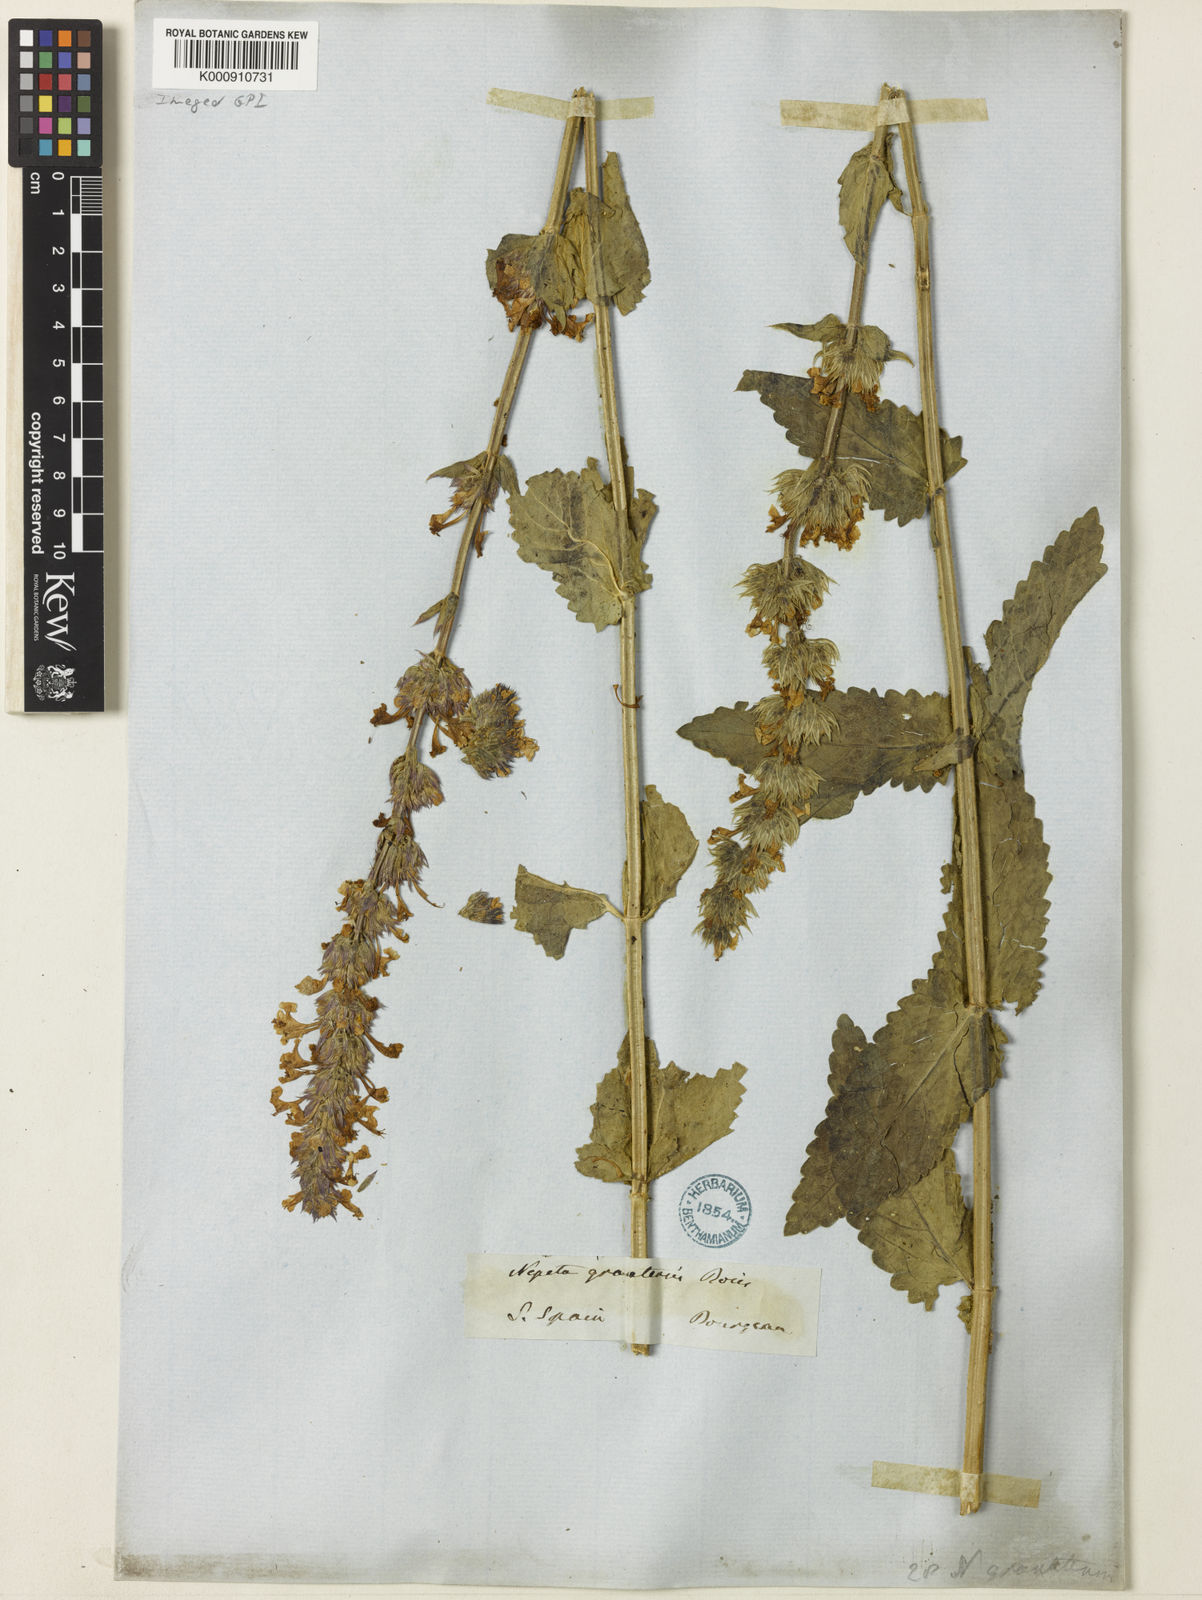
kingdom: Plantae
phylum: Tracheophyta
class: Magnoliopsida
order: Lamiales
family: Lamiaceae
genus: Nepeta
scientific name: Nepeta granatensis
